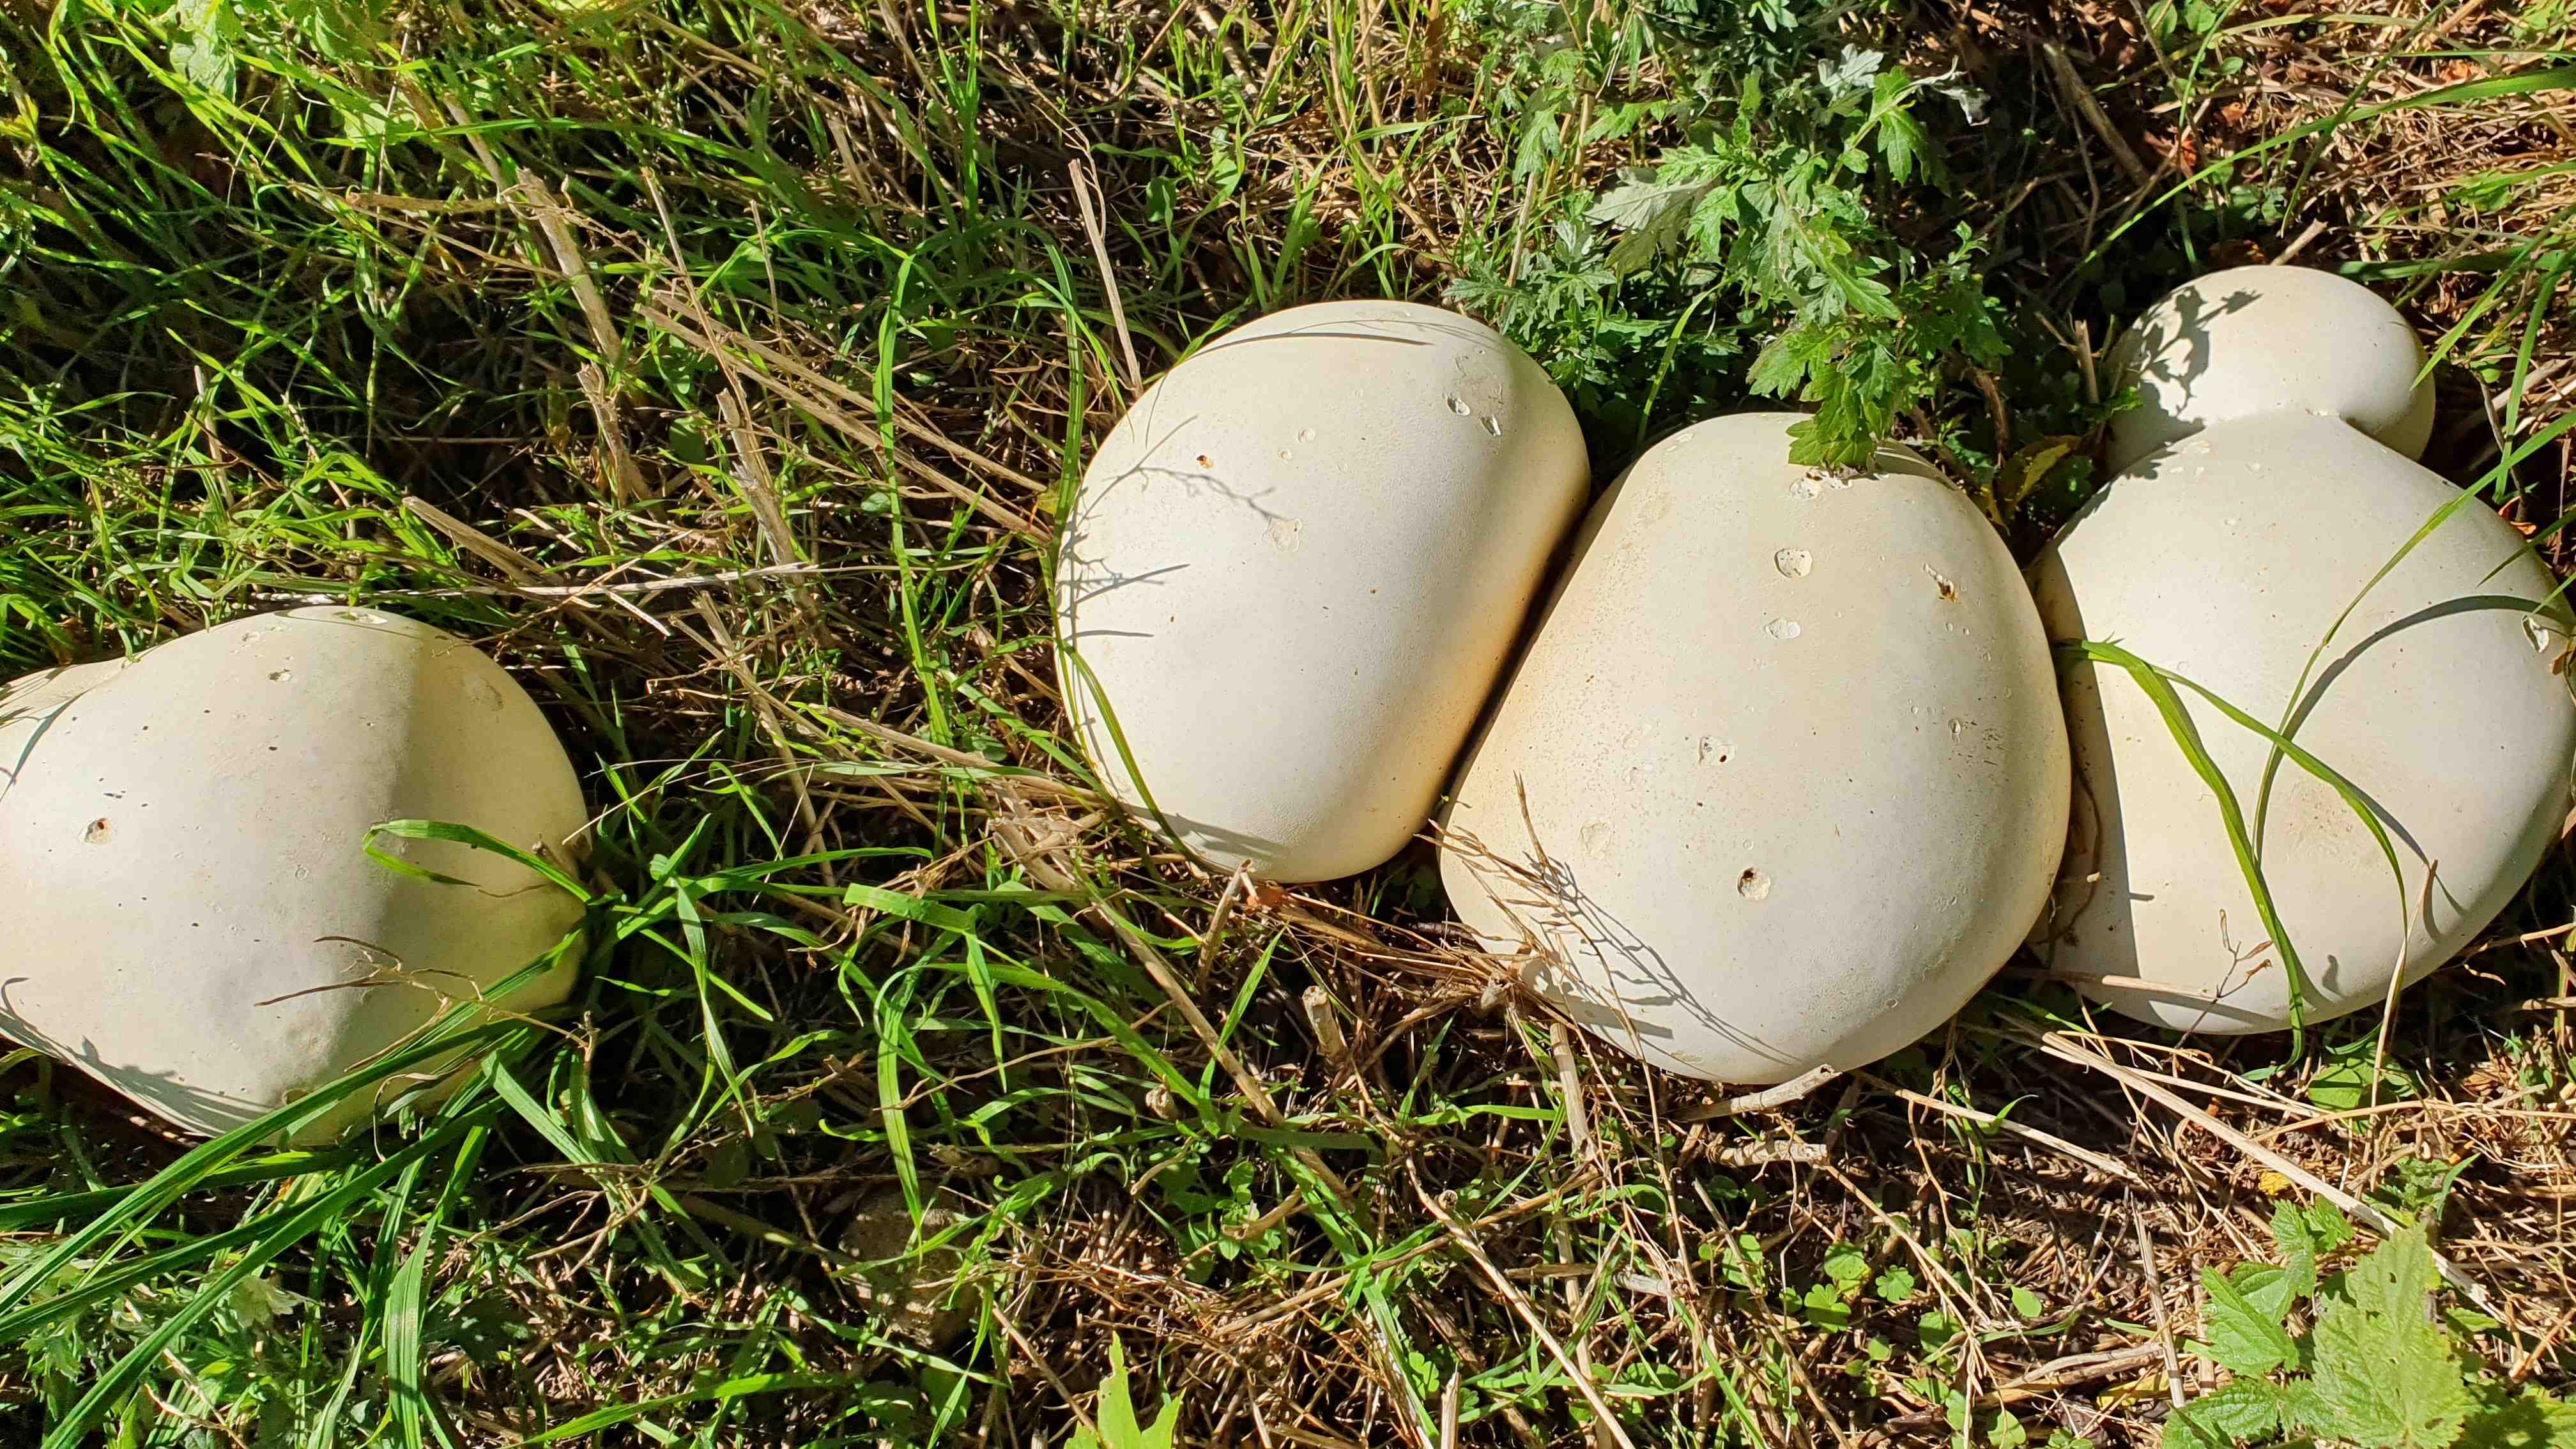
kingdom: Fungi
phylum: Basidiomycota
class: Agaricomycetes
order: Agaricales
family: Lycoperdaceae
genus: Calvatia
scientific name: Calvatia gigantea
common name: kæmpestøvbold
